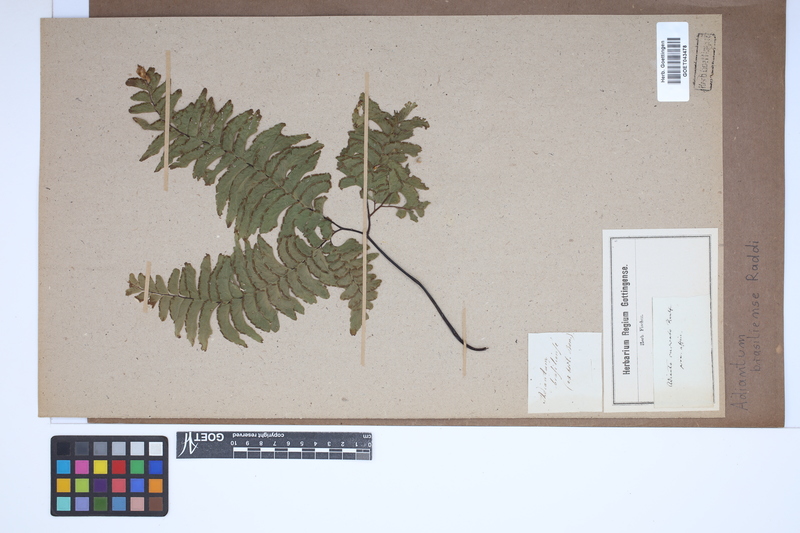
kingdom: Plantae
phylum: Tracheophyta
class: Polypodiopsida
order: Polypodiales
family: Pteridaceae
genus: Adiantum
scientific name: Adiantum abscissum
